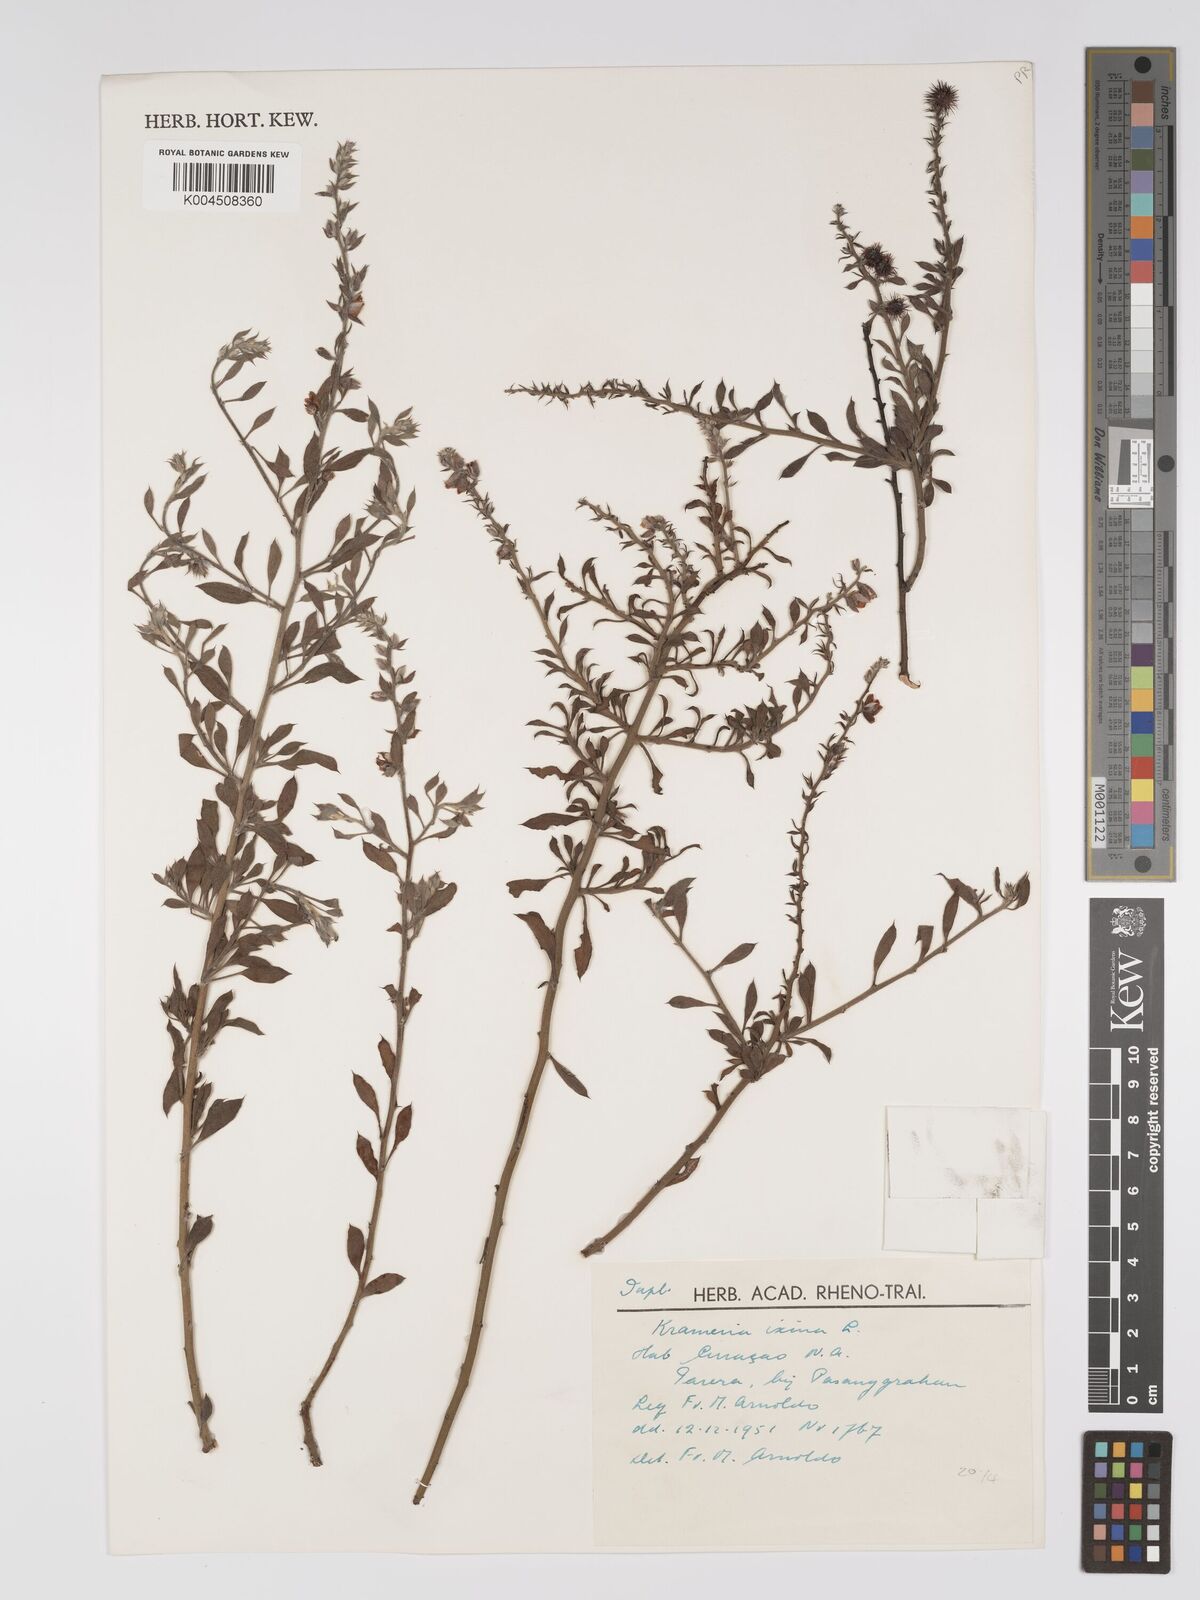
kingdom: Plantae
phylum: Tracheophyta
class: Magnoliopsida
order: Zygophyllales
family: Krameriaceae
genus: Krameria
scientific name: Krameria ixine
